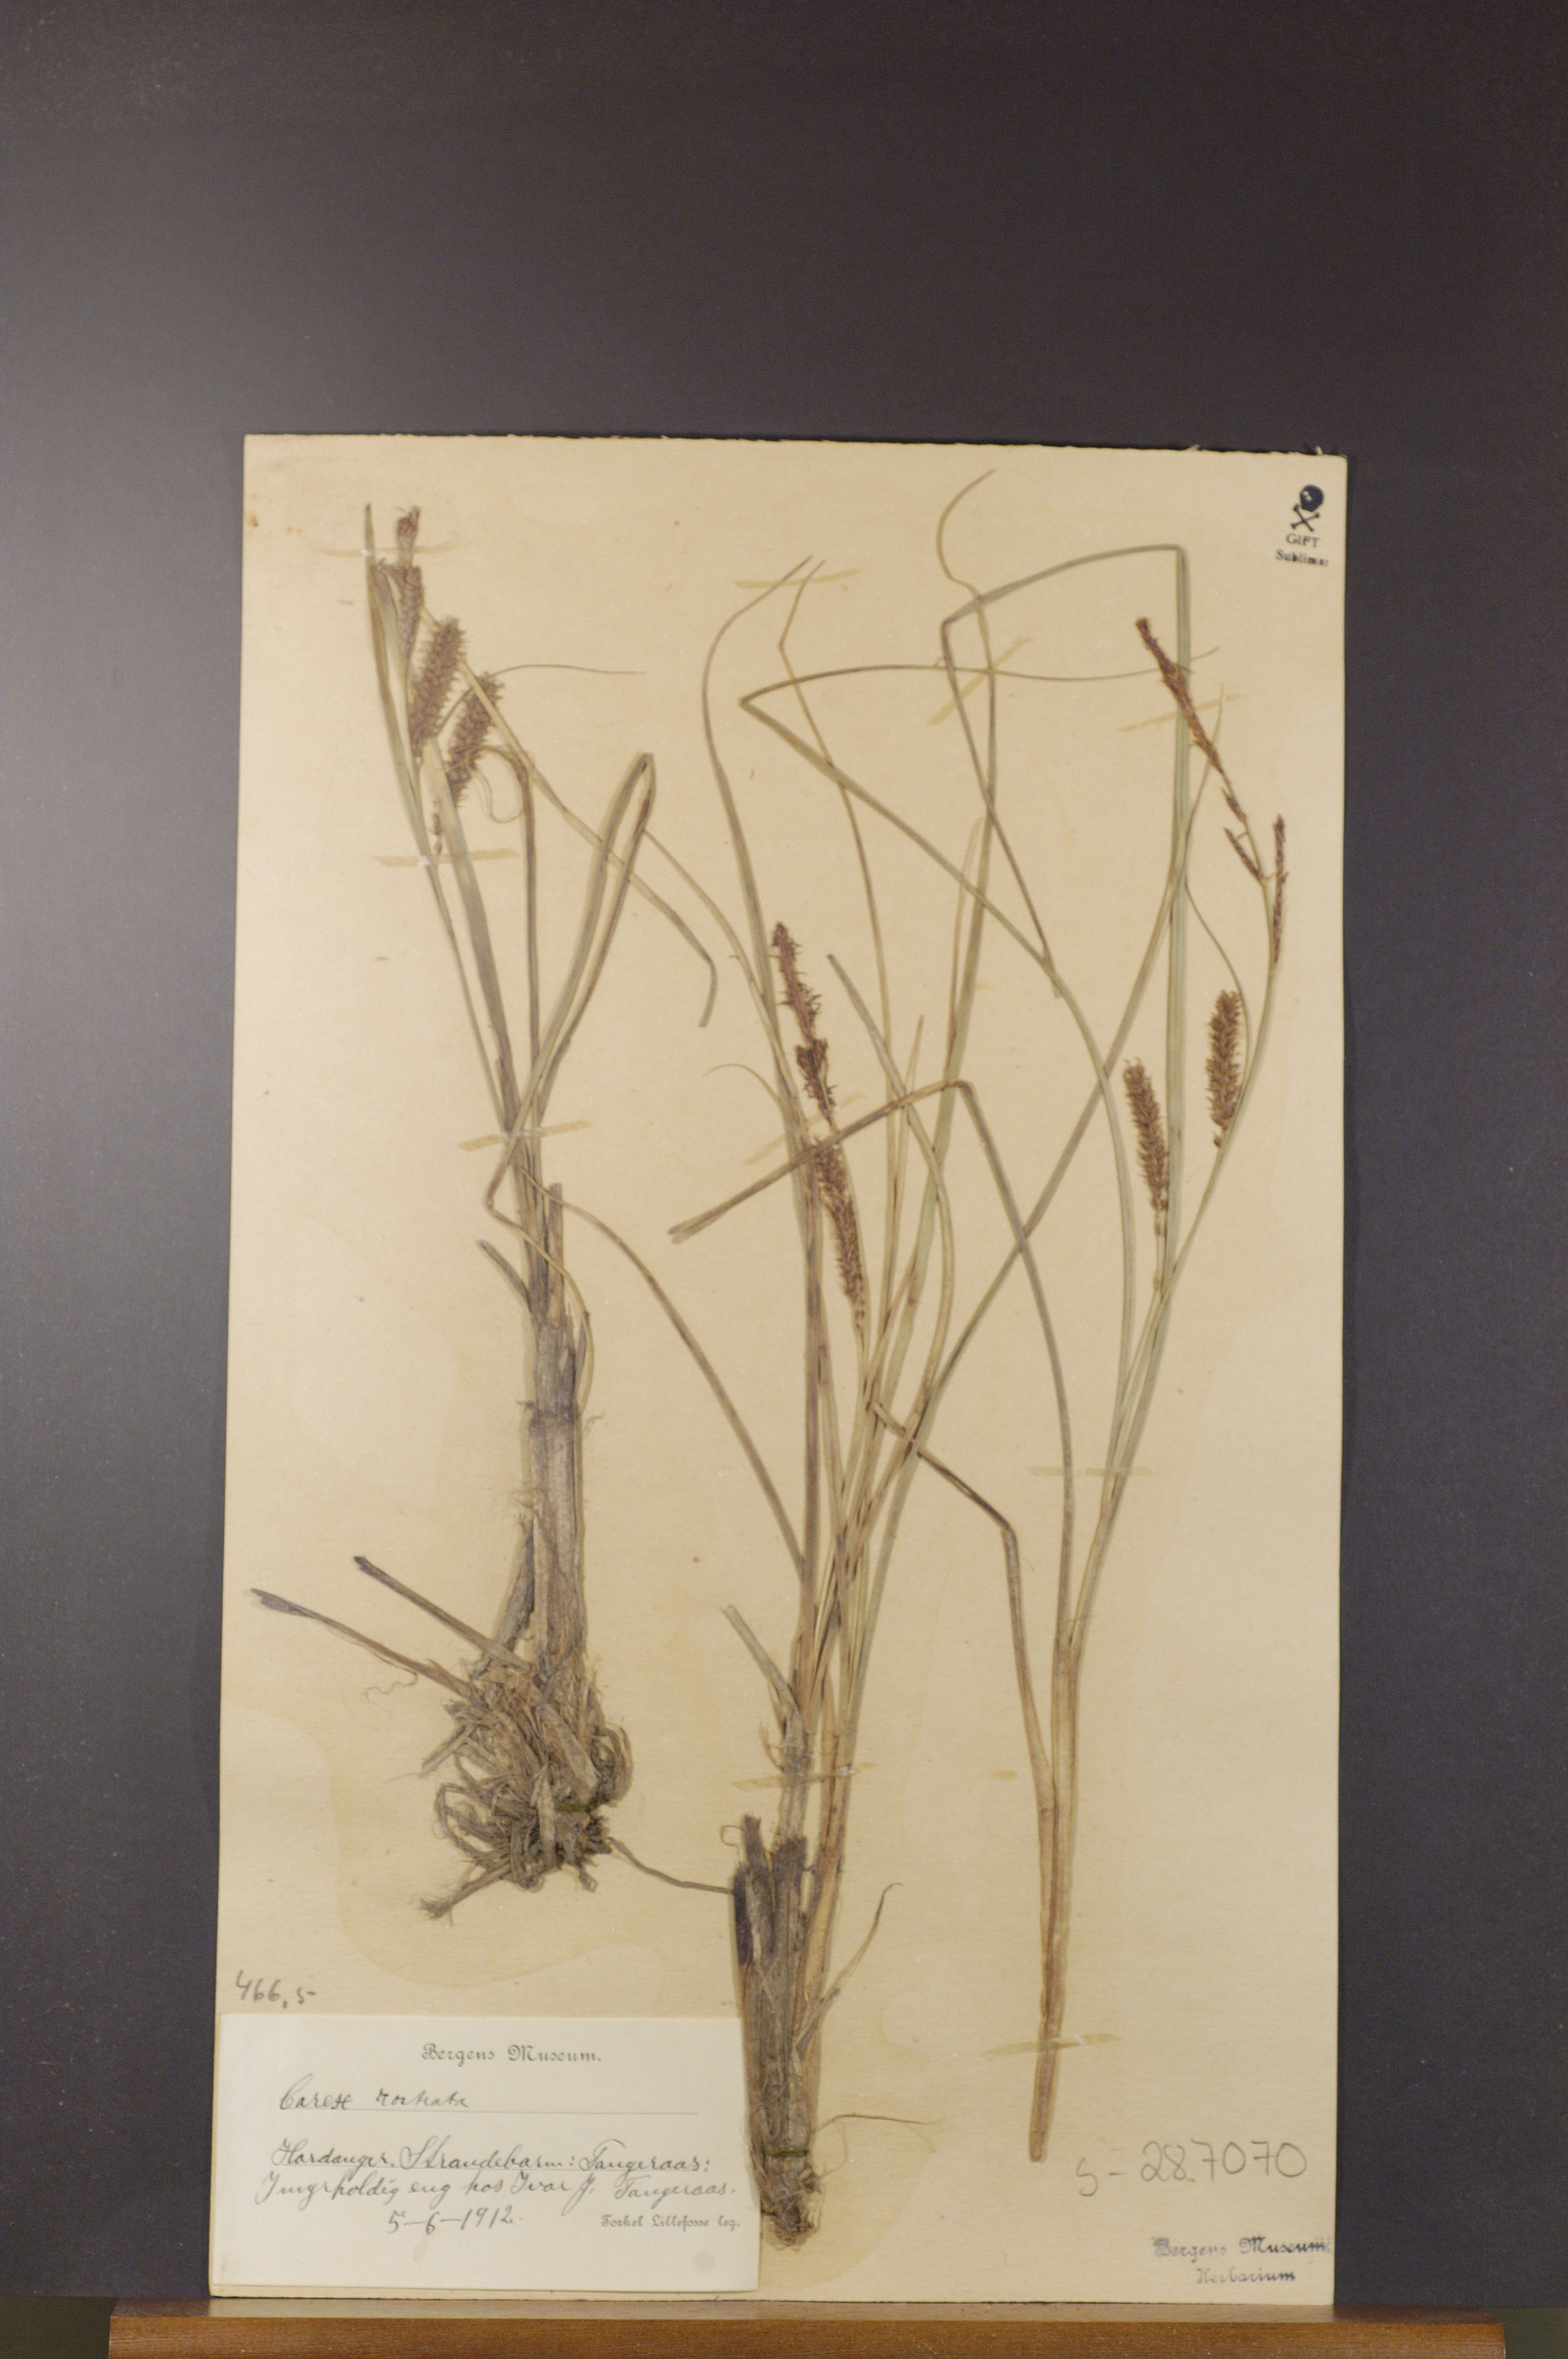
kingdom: Plantae
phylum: Tracheophyta
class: Liliopsida
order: Poales
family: Cyperaceae
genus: Carex
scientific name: Carex rostrata
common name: Bottle sedge
